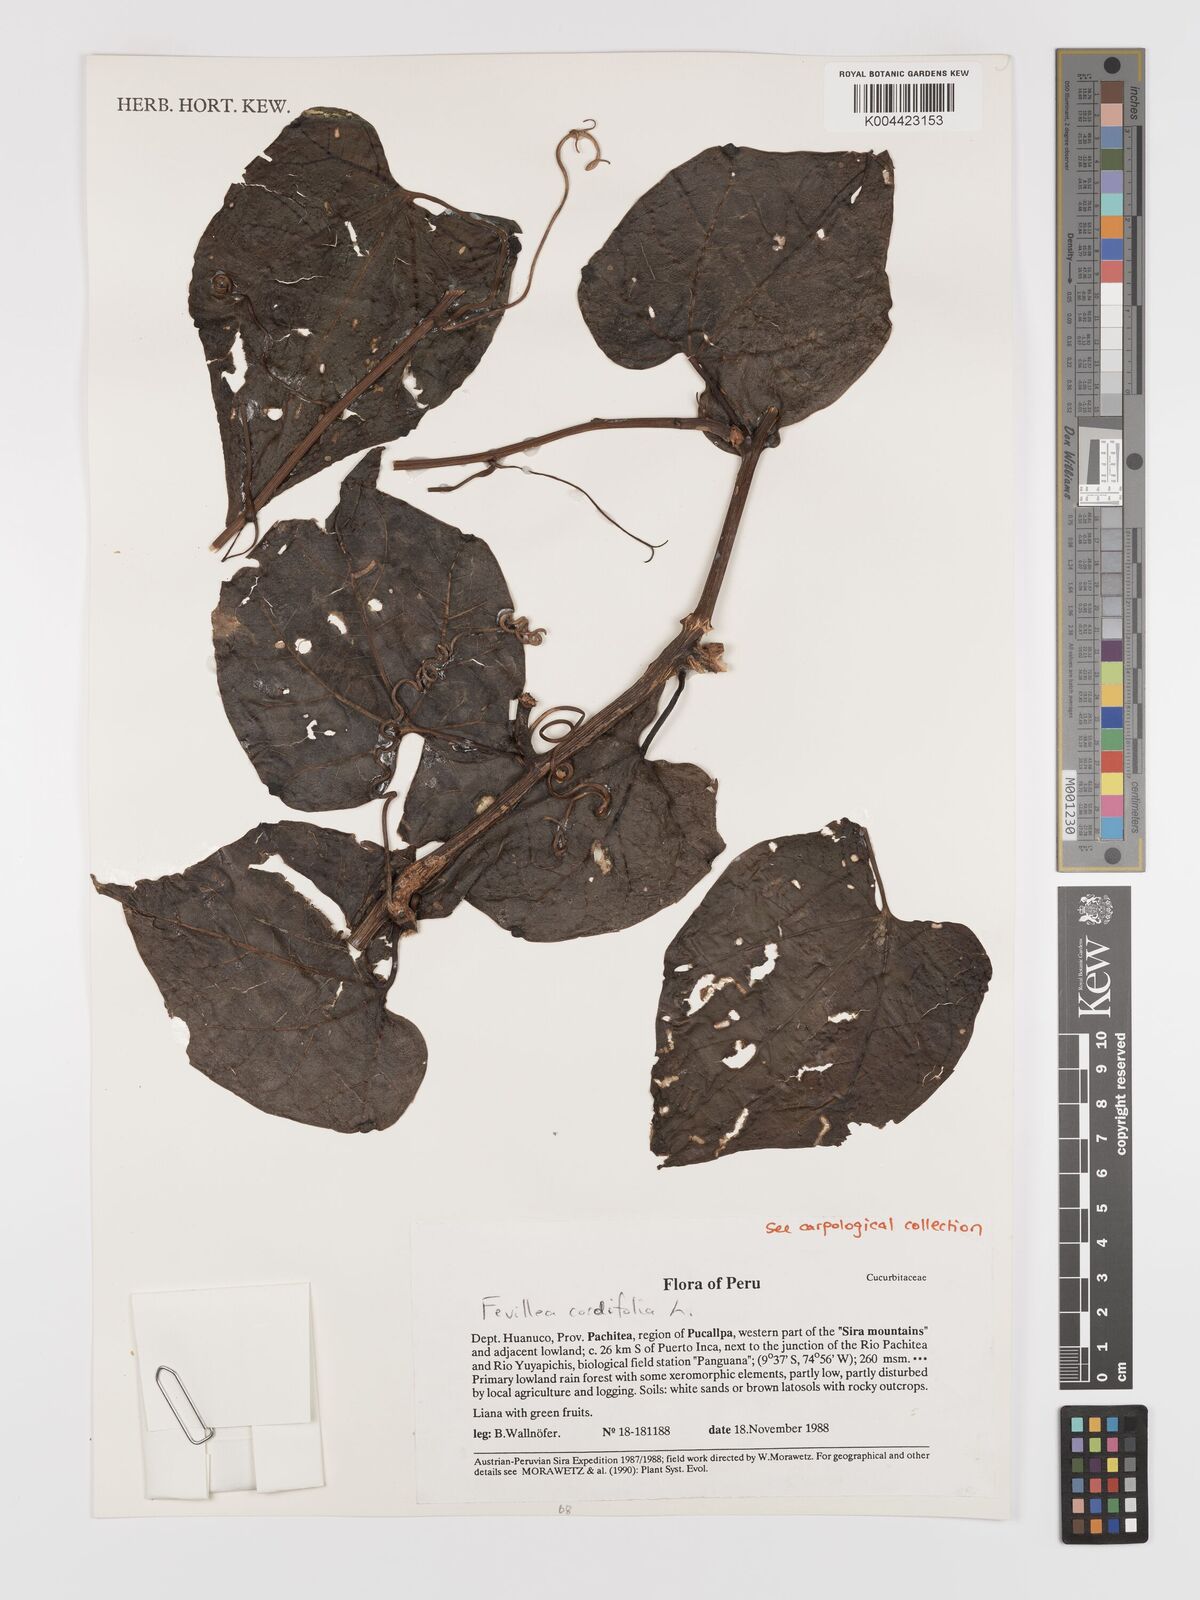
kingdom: Plantae
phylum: Tracheophyta
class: Magnoliopsida
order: Cucurbitales
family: Cucurbitaceae
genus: Fevillea
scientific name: Fevillea
